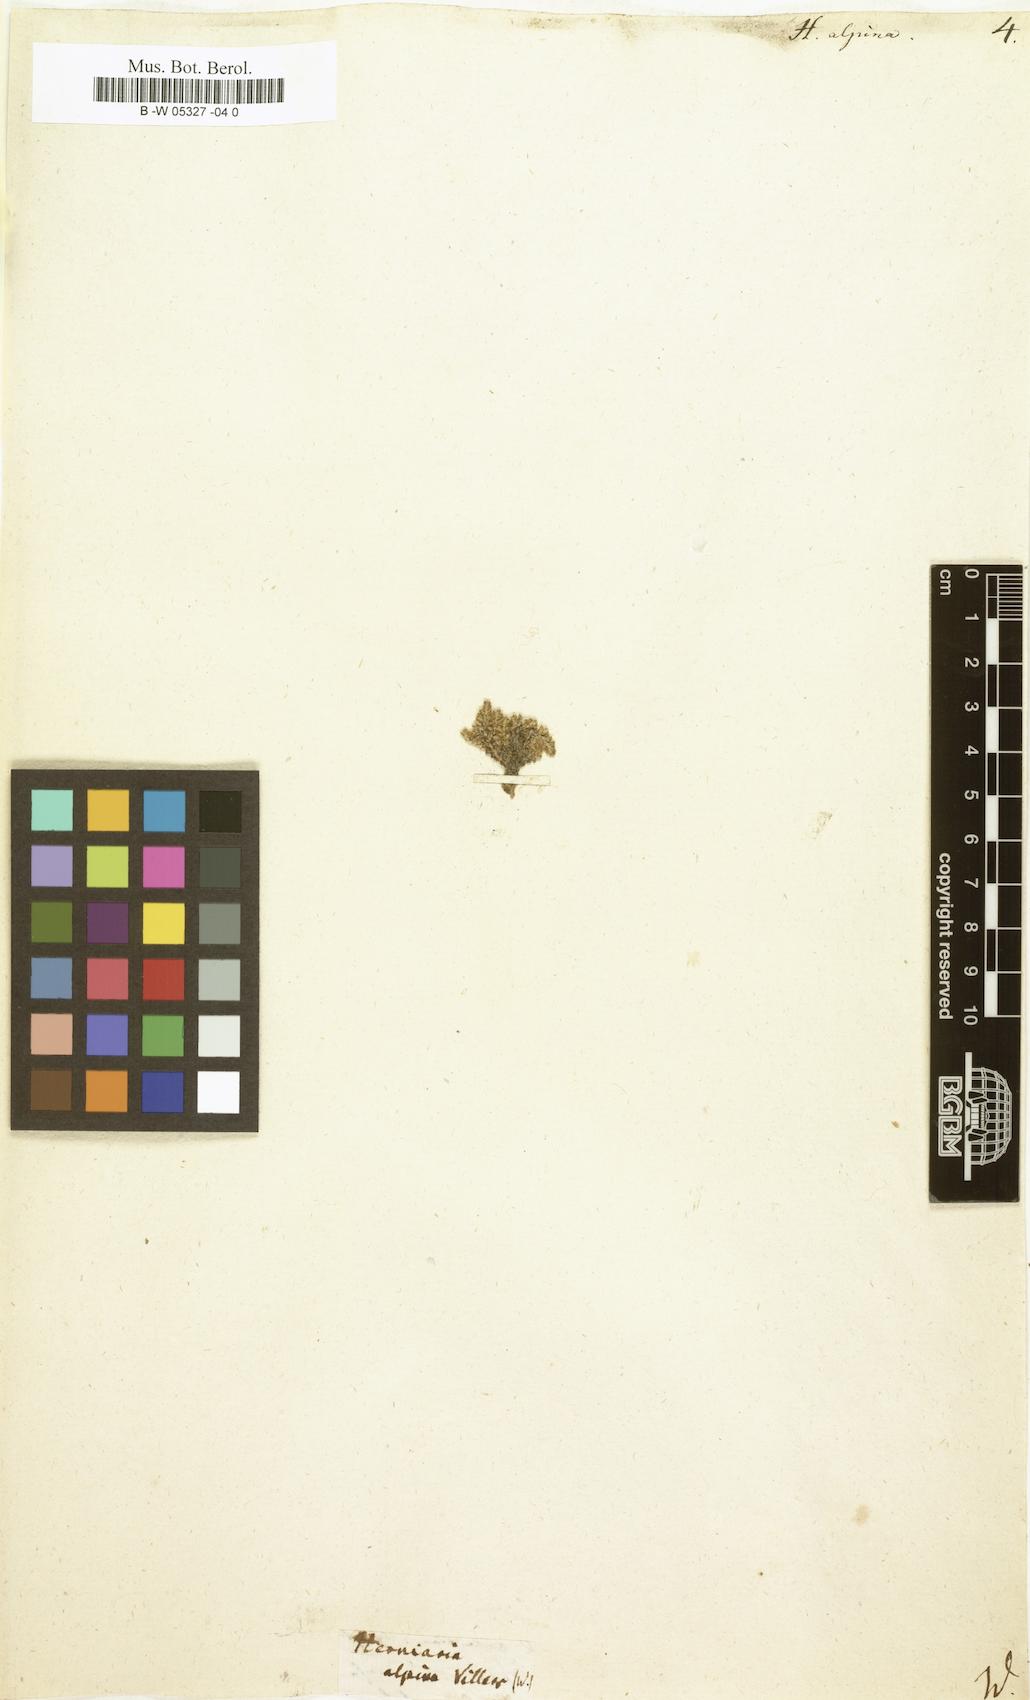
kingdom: Plantae
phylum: Tracheophyta
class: Magnoliopsida
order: Caryophyllales
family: Caryophyllaceae
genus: Herniaria
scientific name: Herniaria alpina
